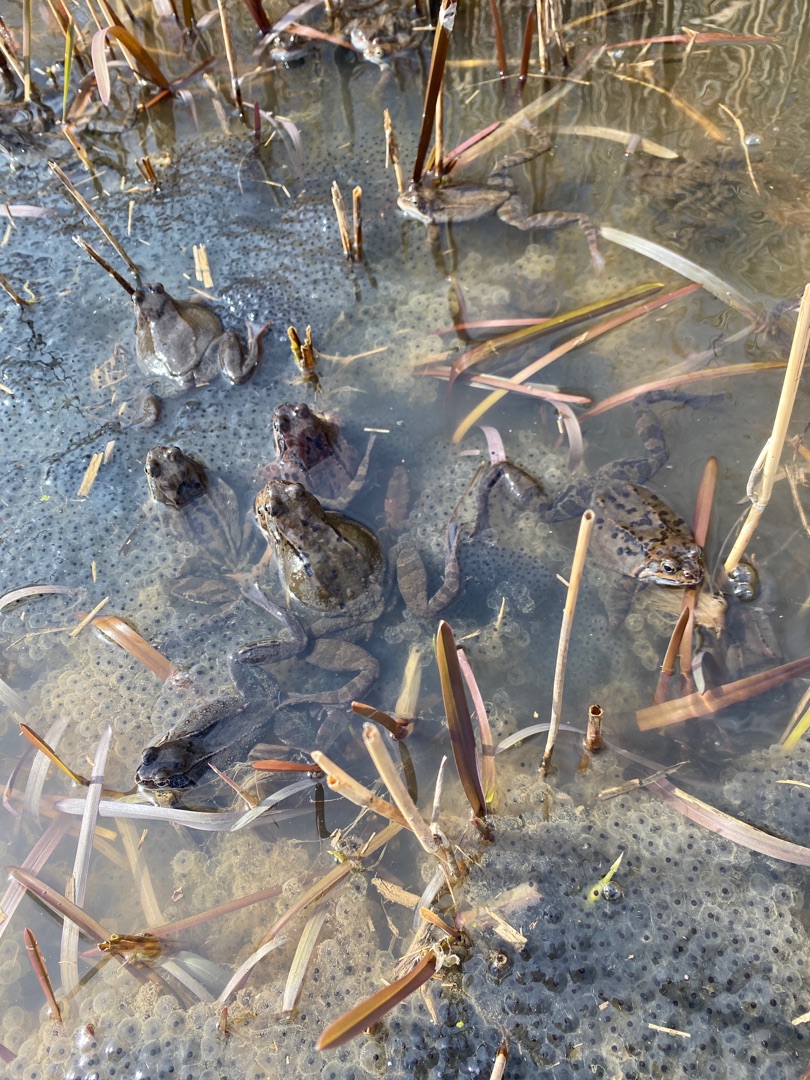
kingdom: Animalia
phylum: Chordata
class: Amphibia
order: Anura
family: Ranidae
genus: Rana
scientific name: Rana temporaria
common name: Butsnudet frø
